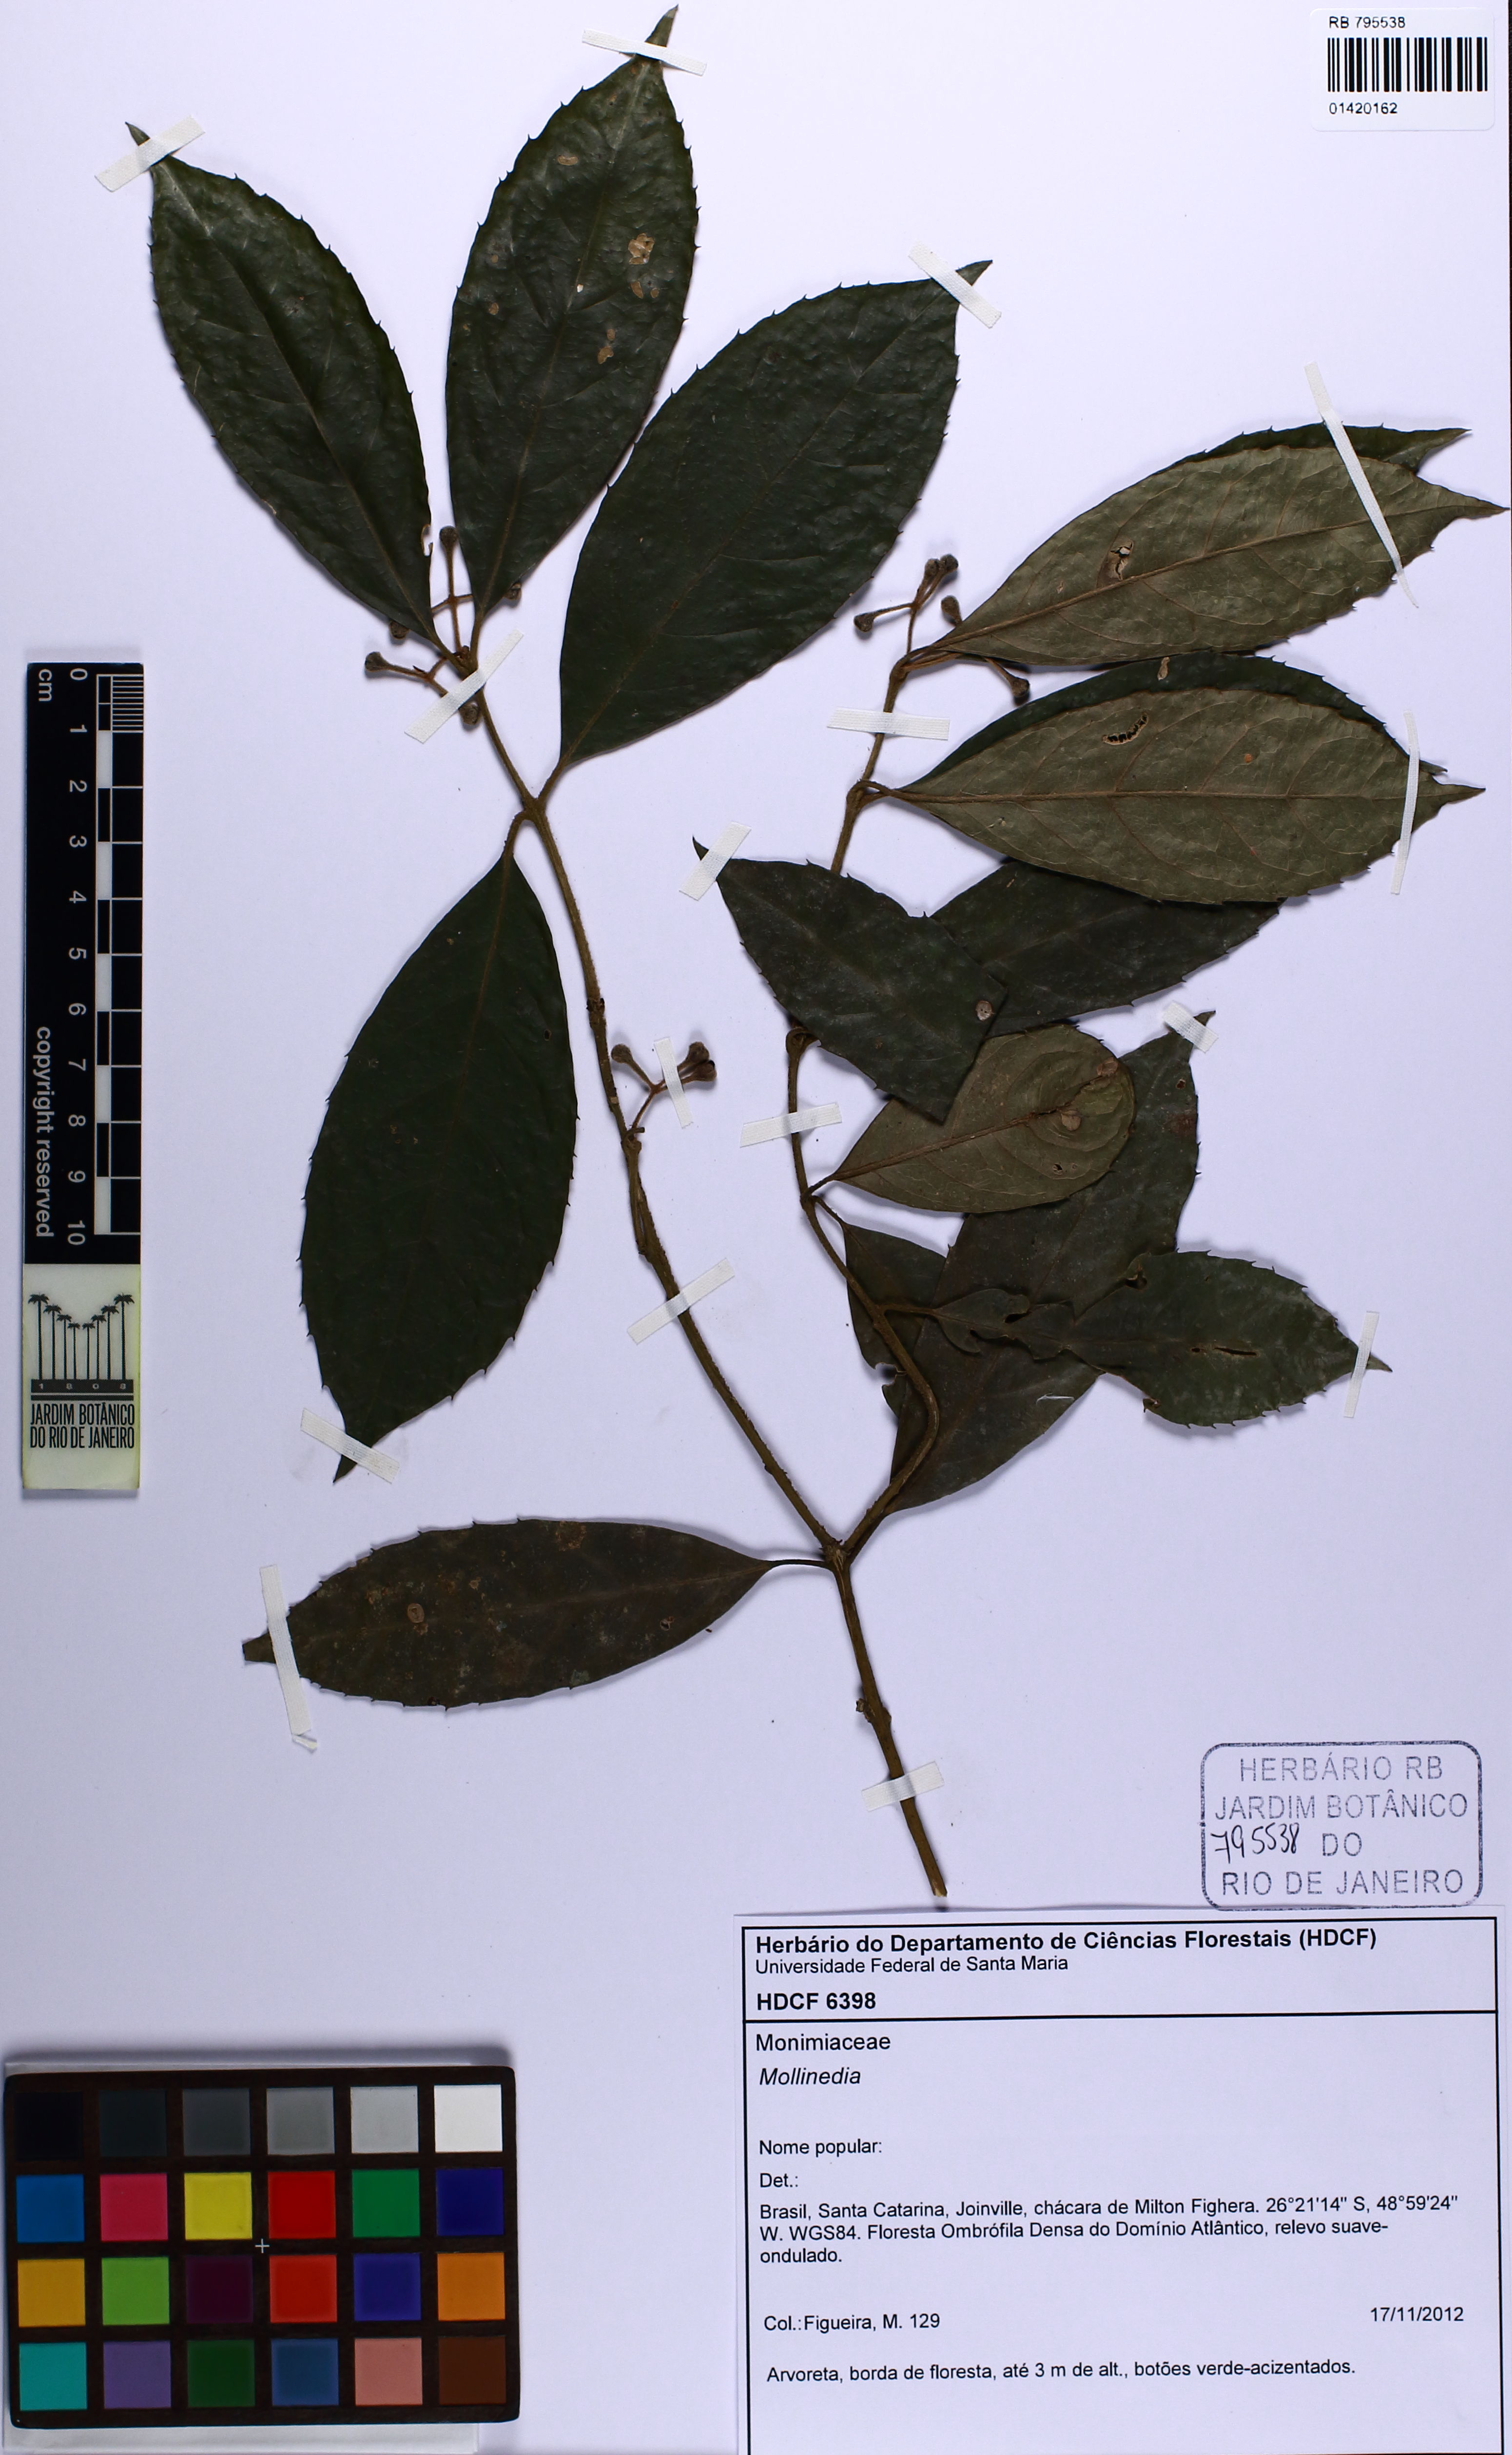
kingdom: Plantae
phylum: Tracheophyta
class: Magnoliopsida
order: Laurales
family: Monimiaceae
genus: Mollinedia
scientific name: Mollinedia triflora
